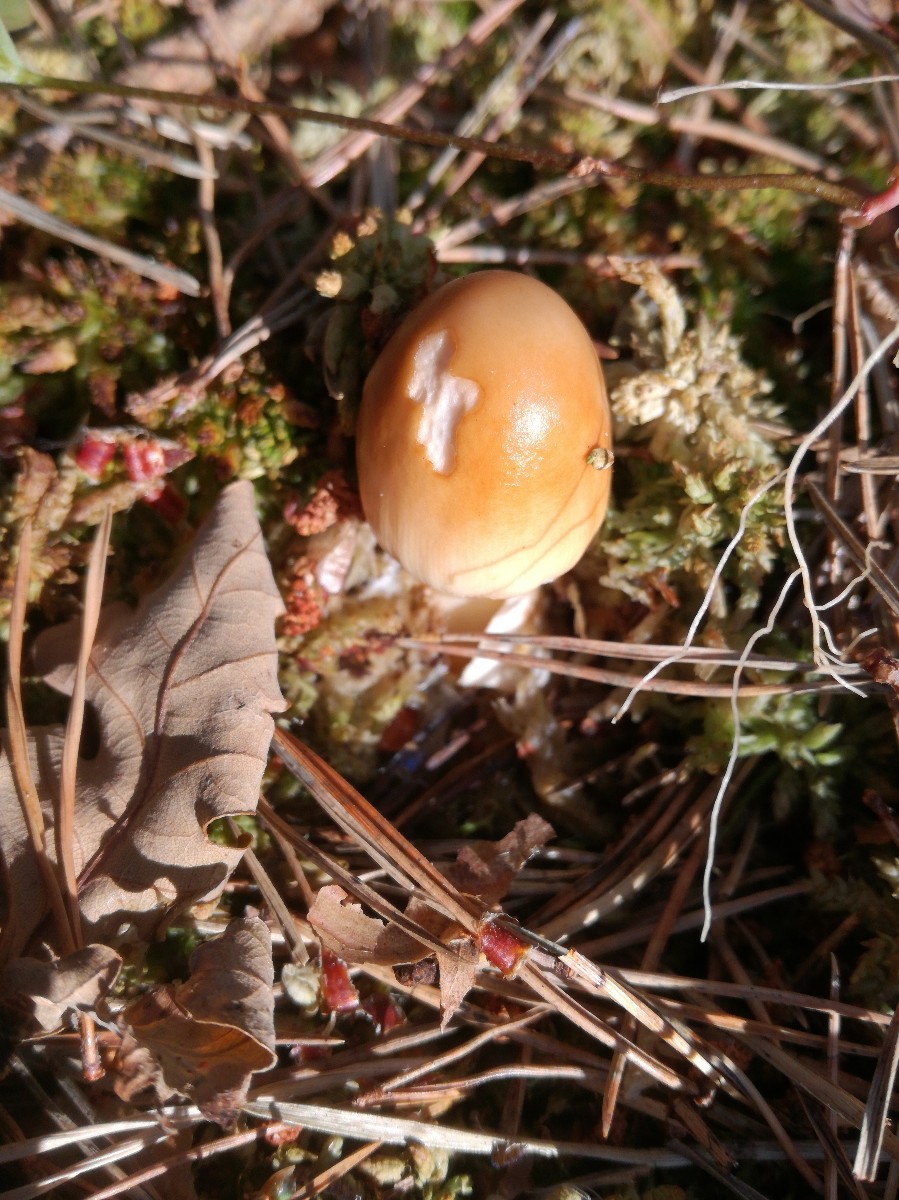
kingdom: Fungi
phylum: Basidiomycota
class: Agaricomycetes
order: Agaricales
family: Amanitaceae
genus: Amanita
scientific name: Amanita fulva
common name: brun kam-fluesvamp
